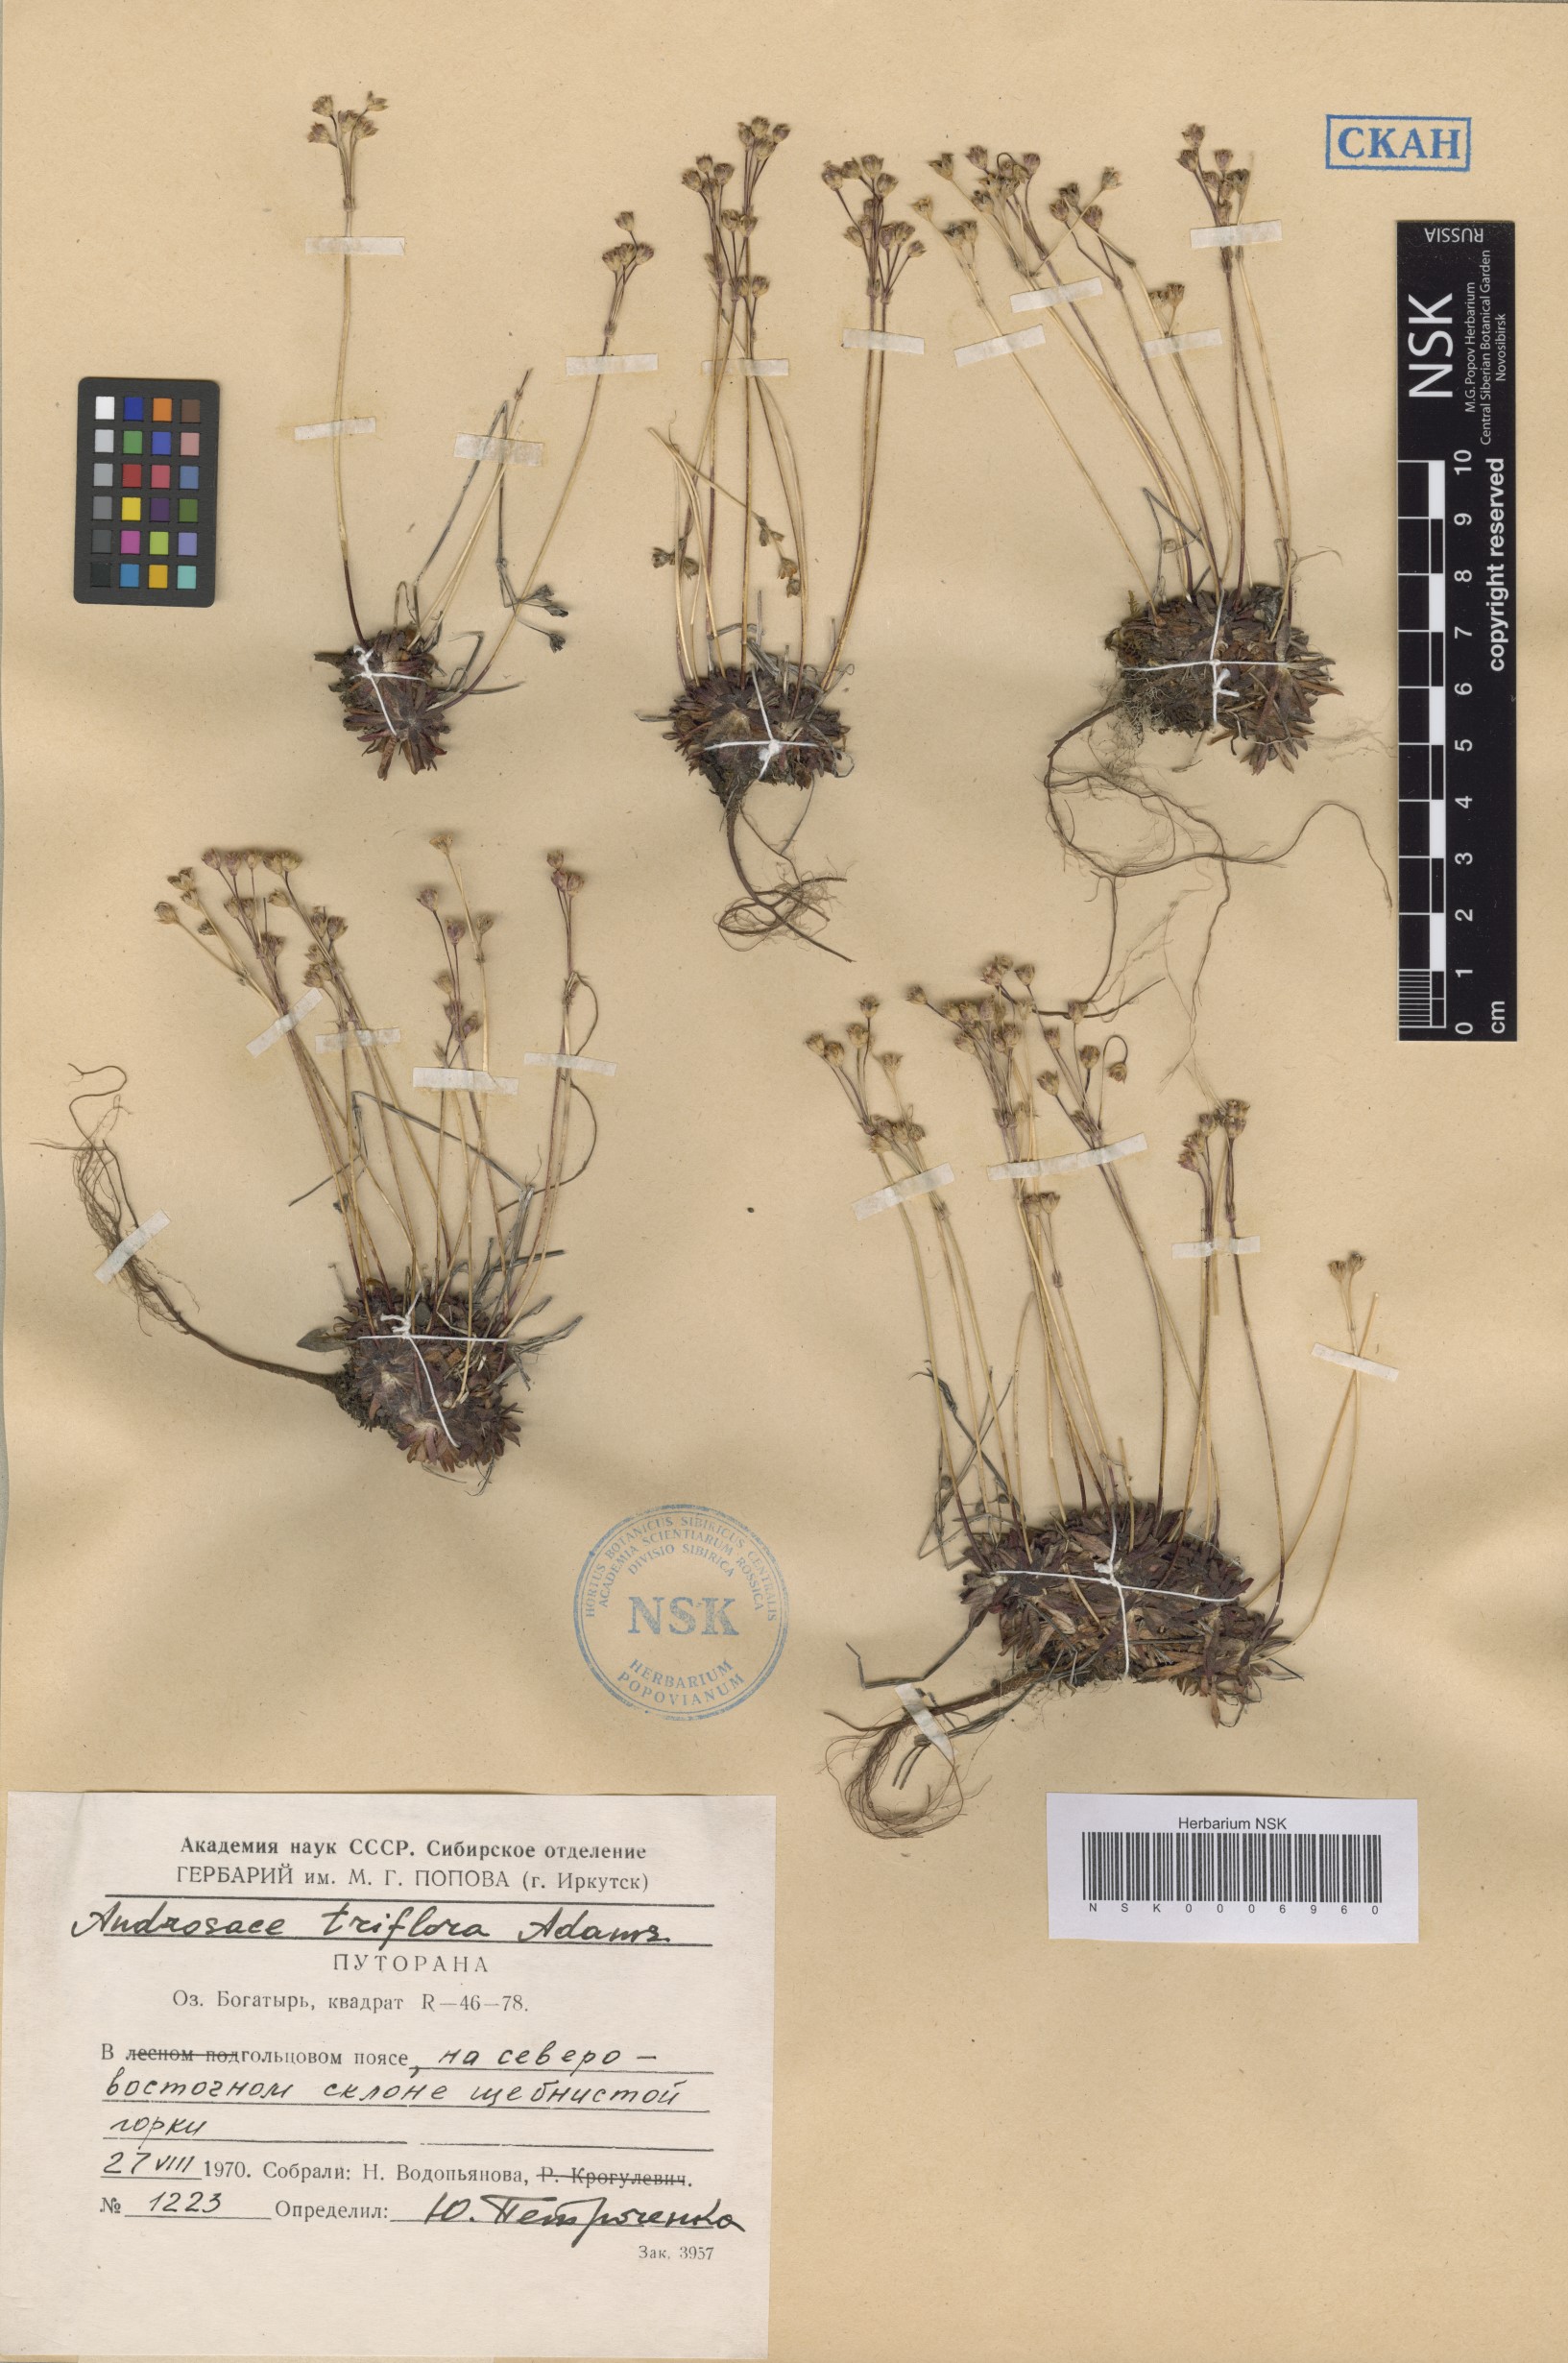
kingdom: Plantae
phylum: Tracheophyta
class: Magnoliopsida
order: Ericales
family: Primulaceae
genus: Androsace
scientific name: Androsace triflora
